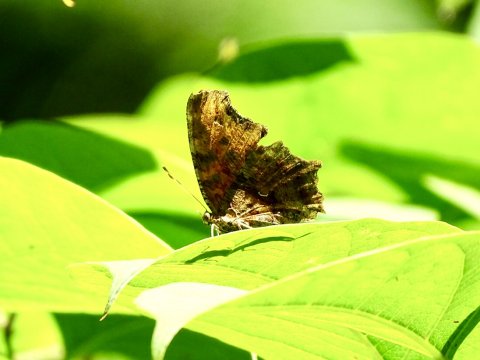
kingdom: Animalia
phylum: Arthropoda
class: Insecta
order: Lepidoptera
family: Nymphalidae
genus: Polygonia
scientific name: Polygonia comma
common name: Eastern Comma
